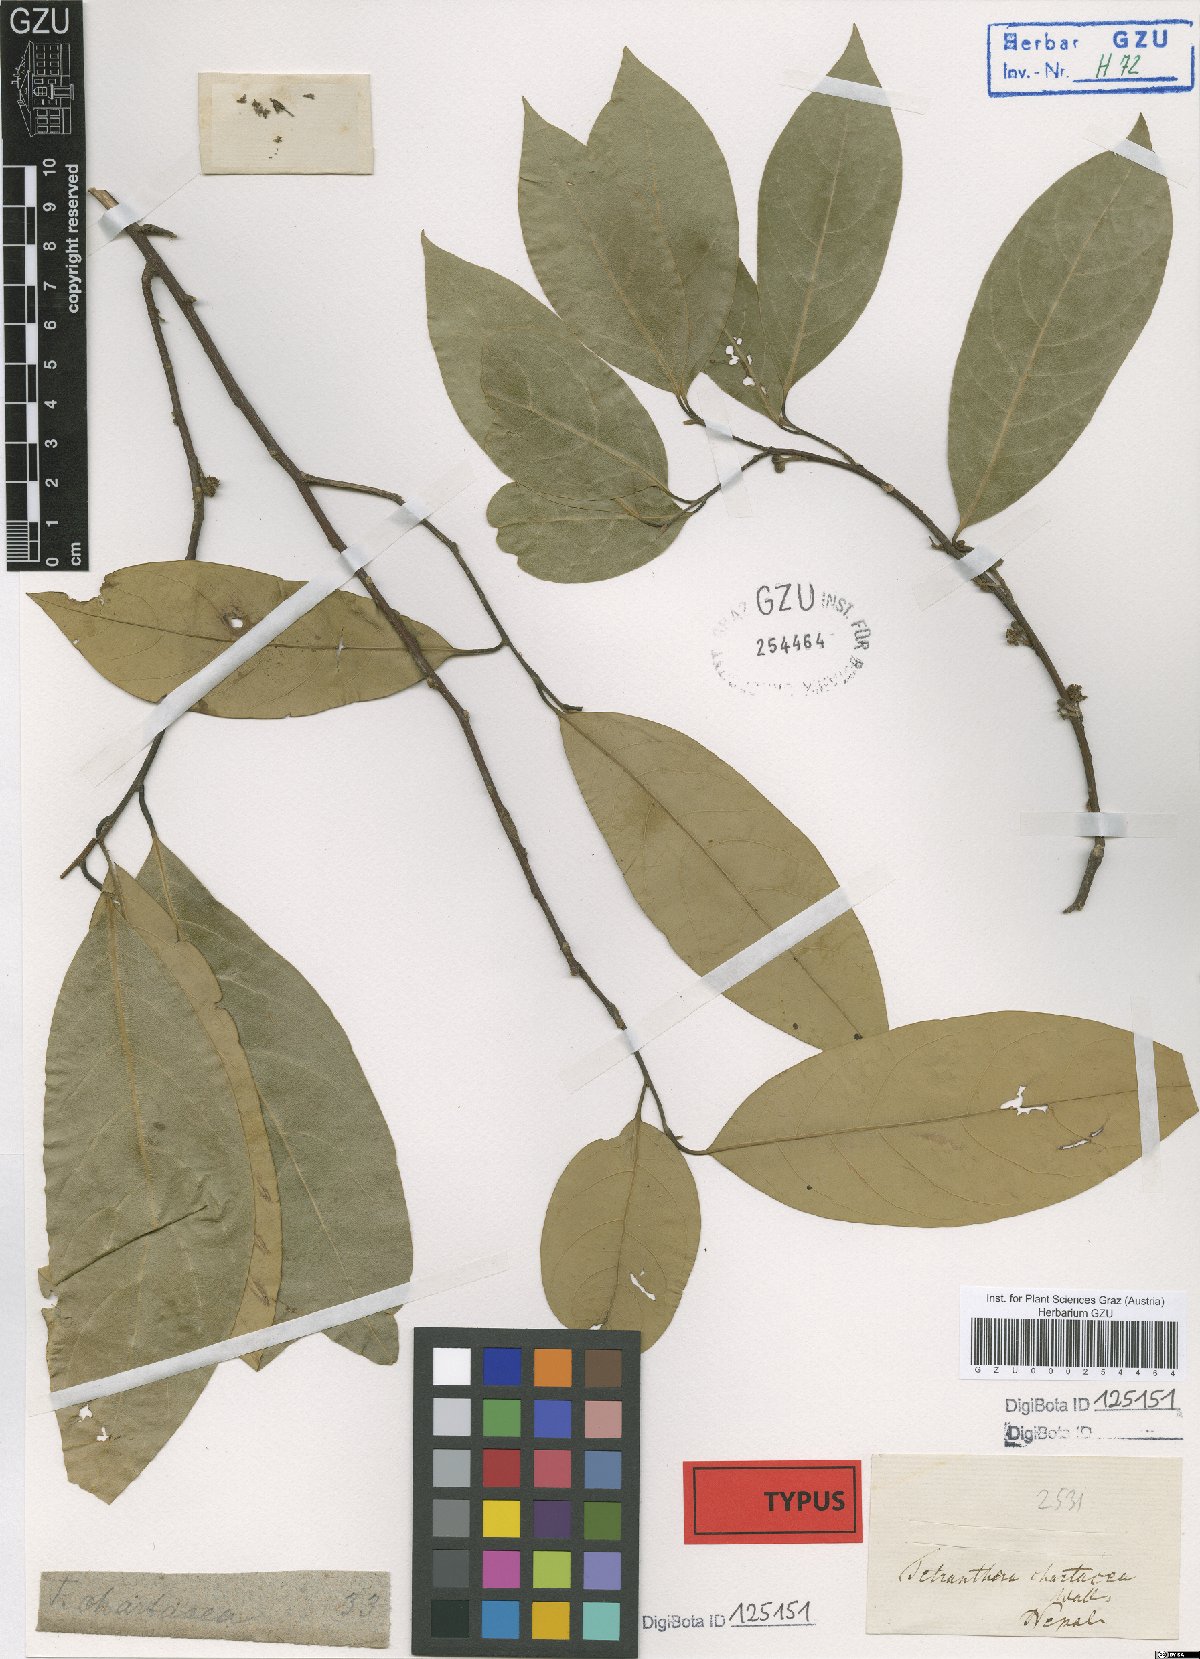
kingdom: Plantae
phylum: Tracheophyta
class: Magnoliopsida
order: Laurales
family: Lauraceae
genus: Litsea
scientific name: Litsea chartacea
